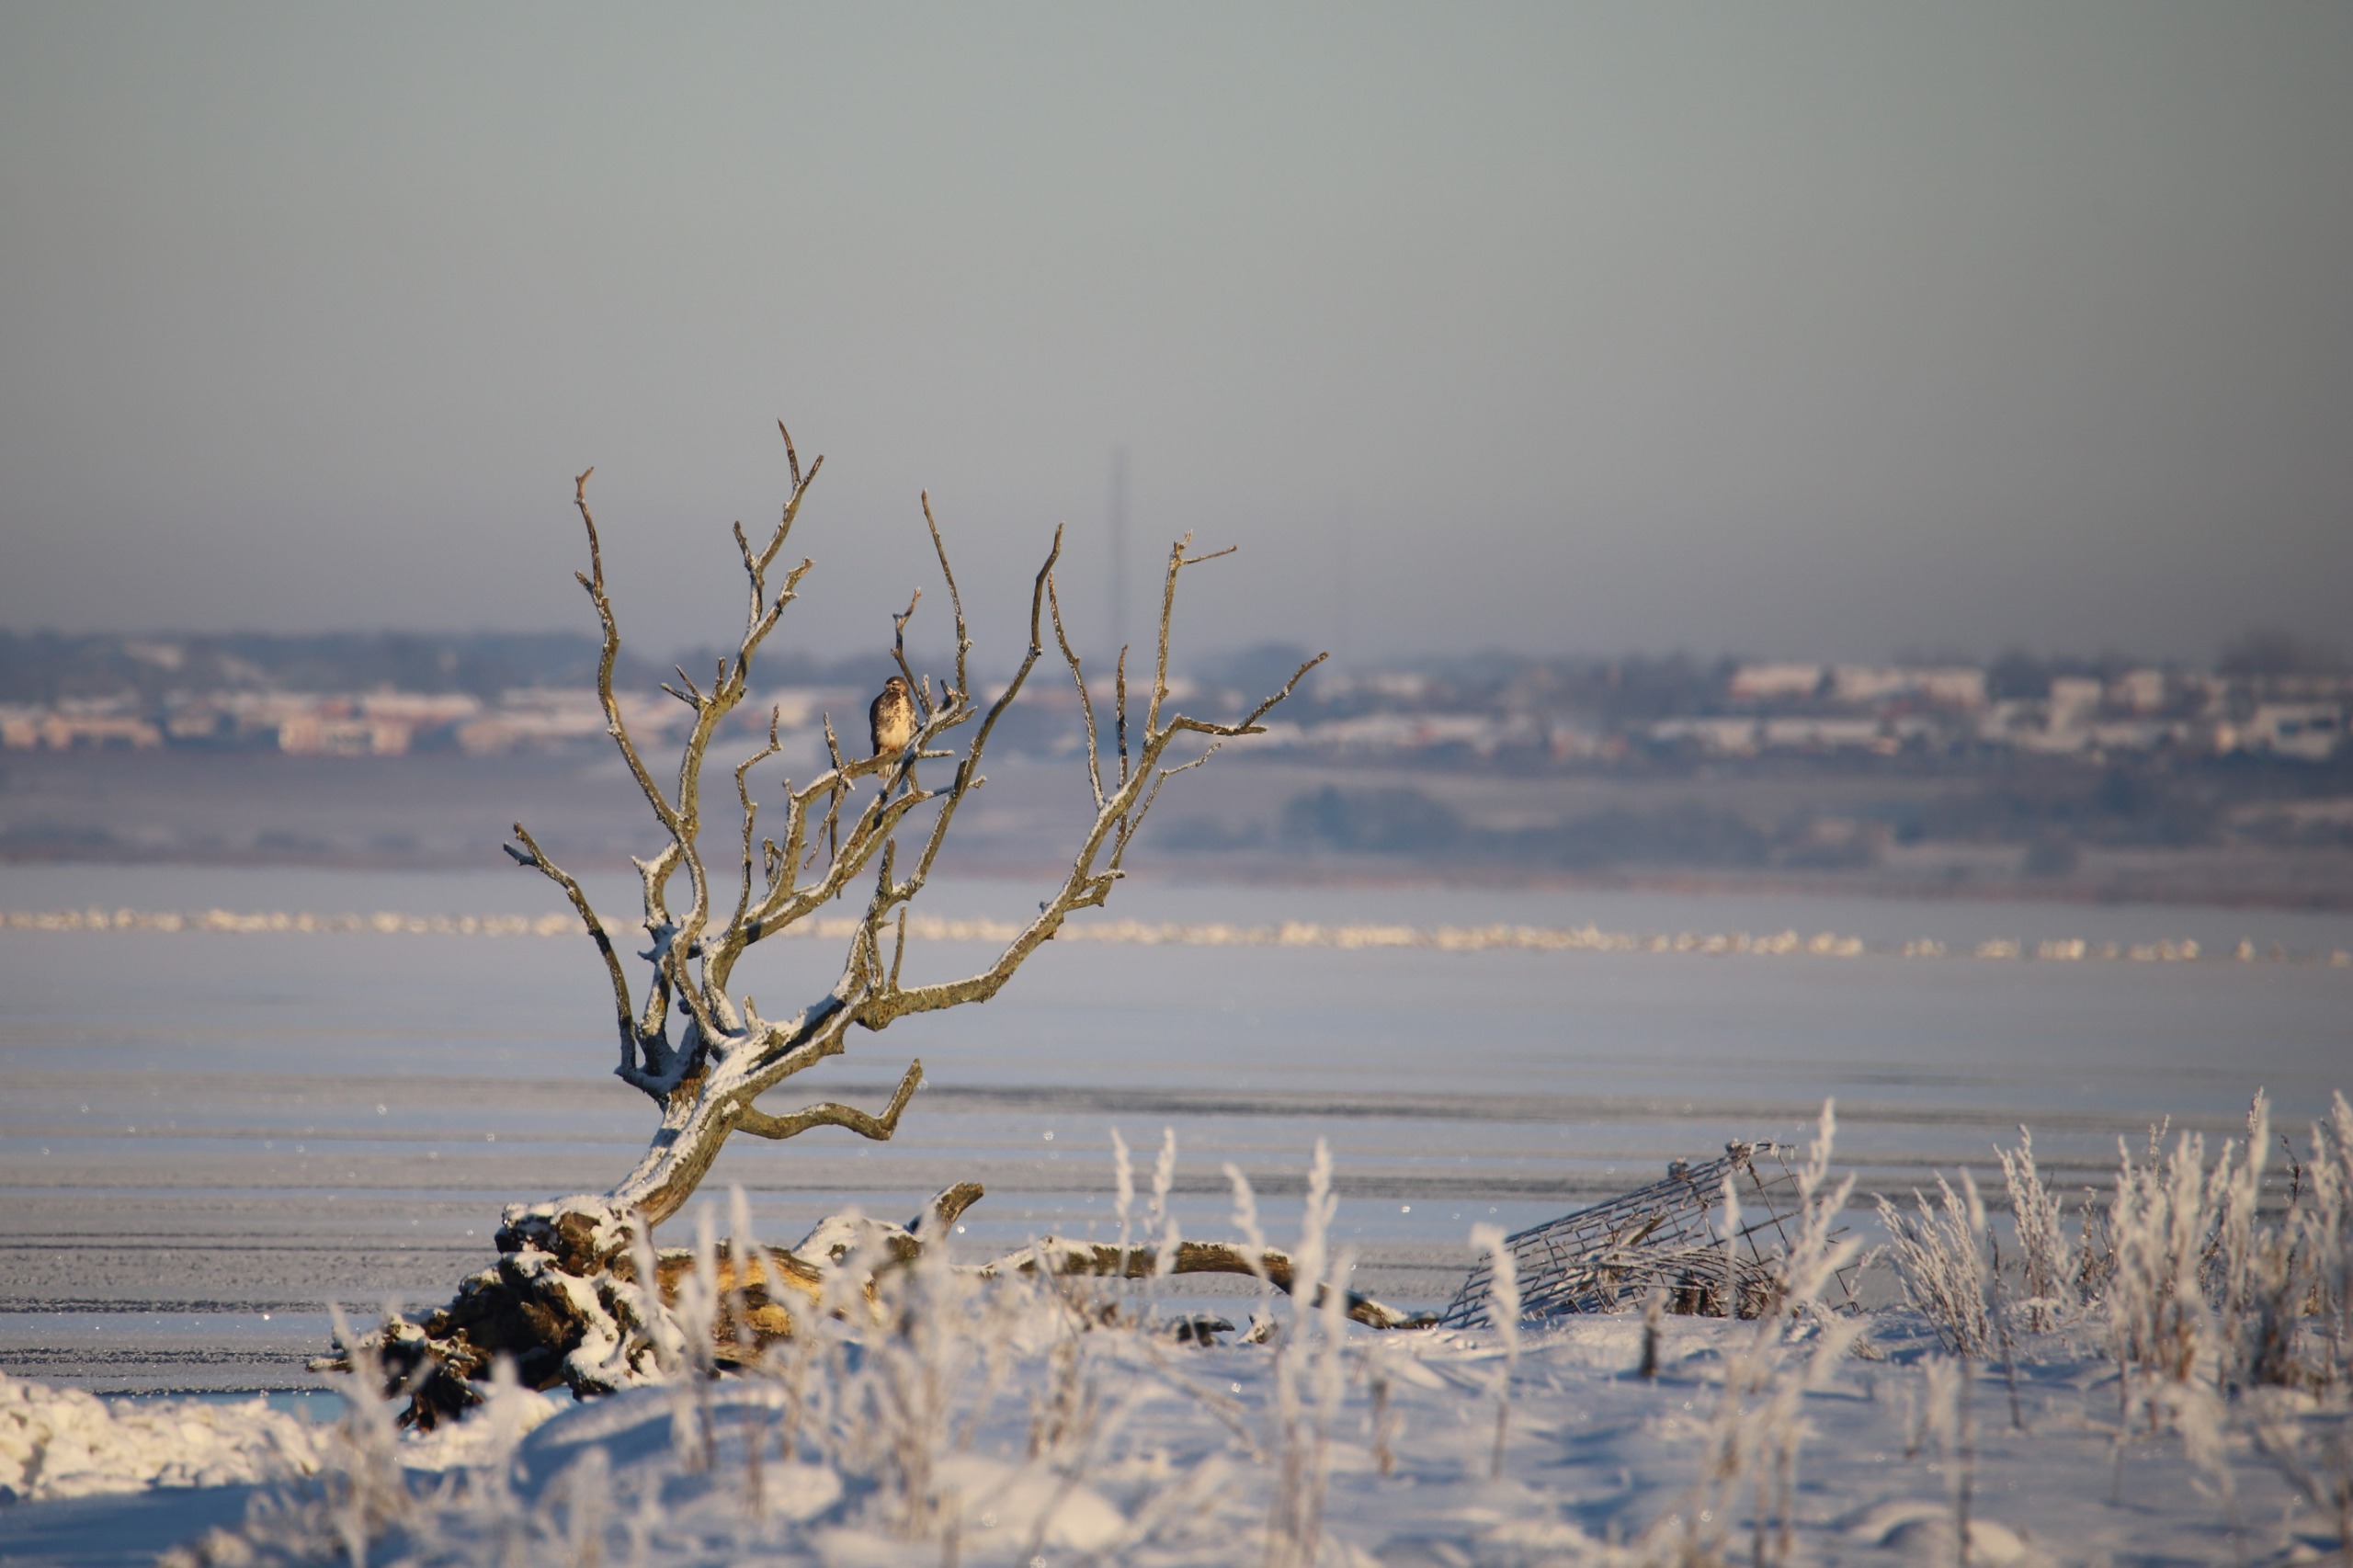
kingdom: Animalia
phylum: Chordata
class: Aves
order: Accipitriformes
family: Accipitridae
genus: Buteo
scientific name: Buteo buteo
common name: Musvåge
